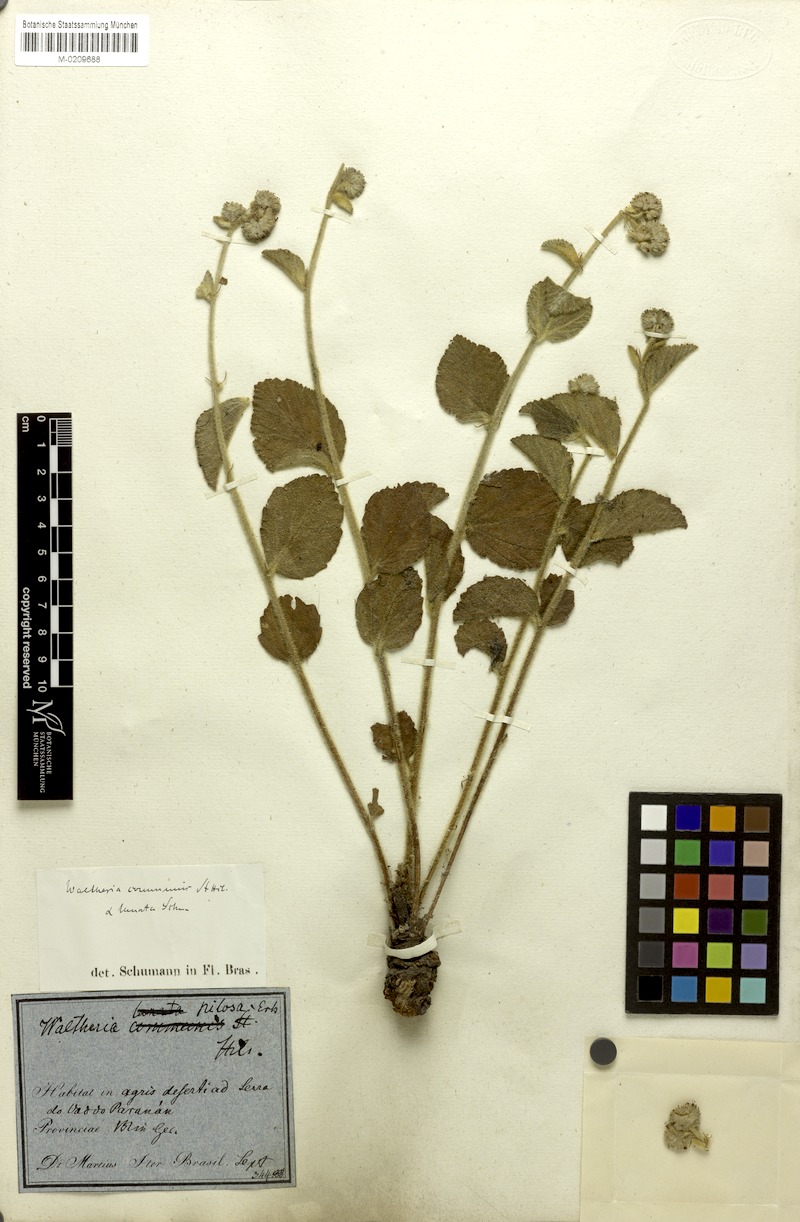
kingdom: Plantae
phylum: Tracheophyta
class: Magnoliopsida
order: Malvales
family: Malvaceae
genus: Waltheria
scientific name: Waltheria communis
